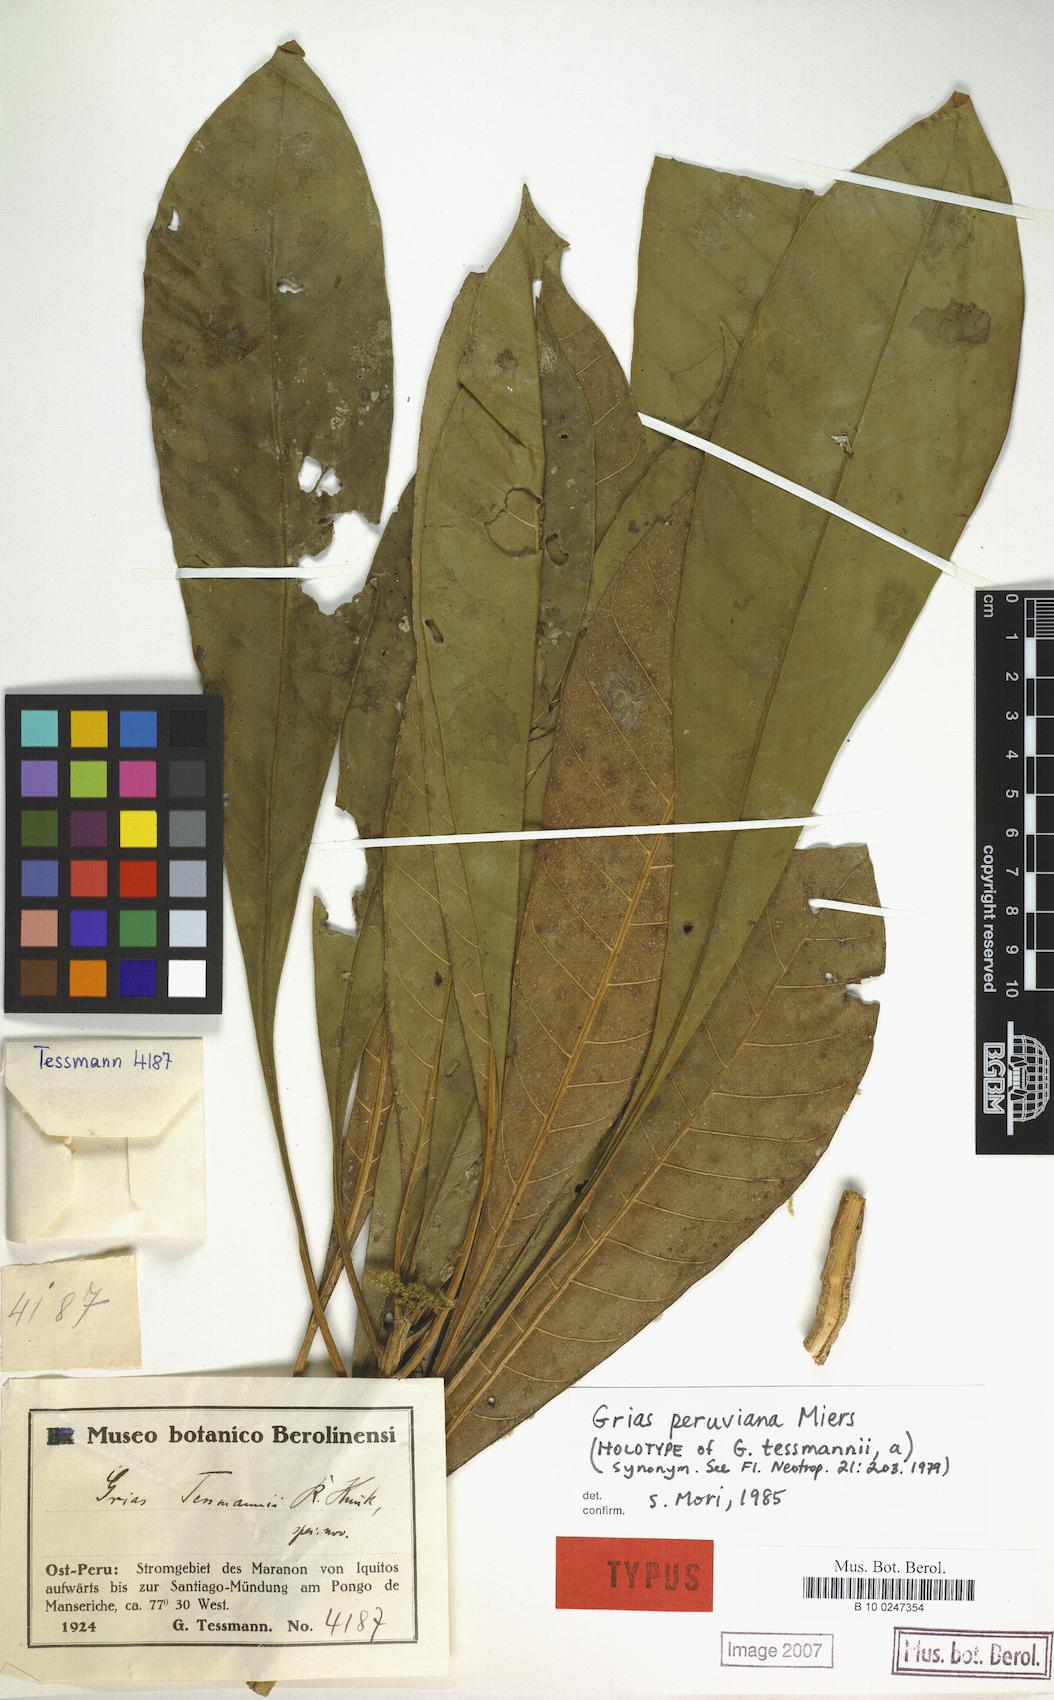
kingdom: Plantae
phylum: Tracheophyta
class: Magnoliopsida
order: Ericales
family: Lecythidaceae
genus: Grias
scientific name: Grias peruviana
